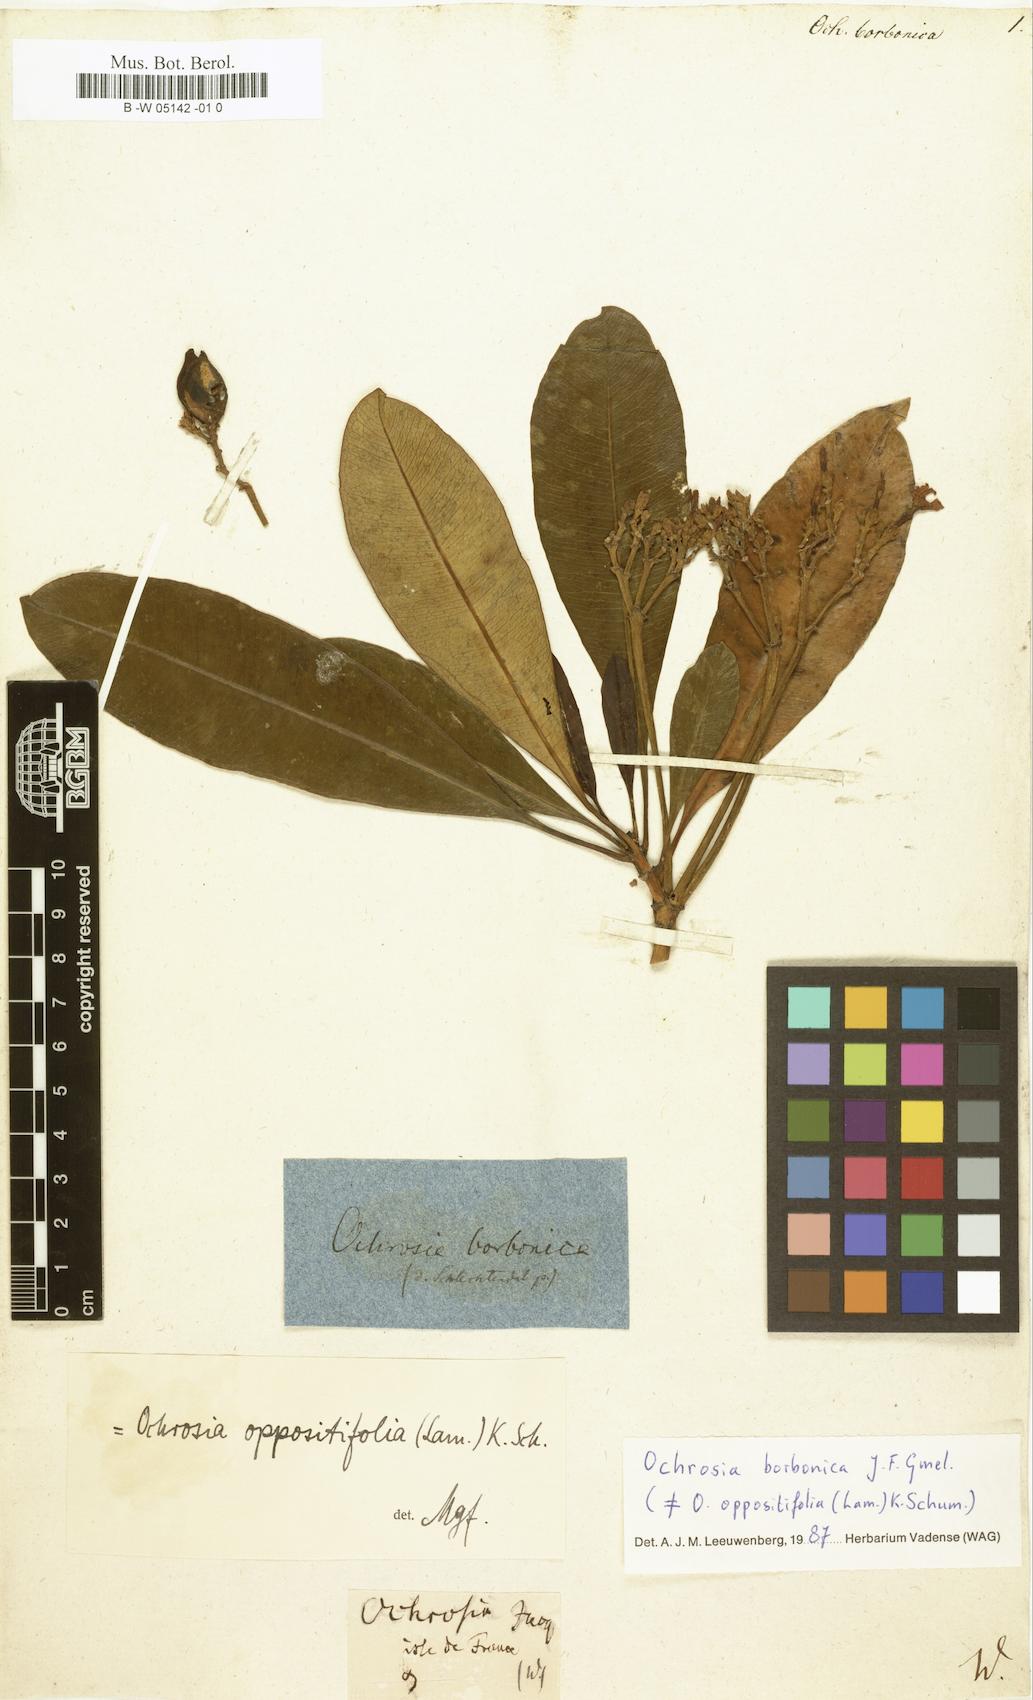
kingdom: Plantae
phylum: Tracheophyta
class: Magnoliopsida
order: Gentianales
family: Apocynaceae
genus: Ochrosia
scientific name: Ochrosia borbonica
